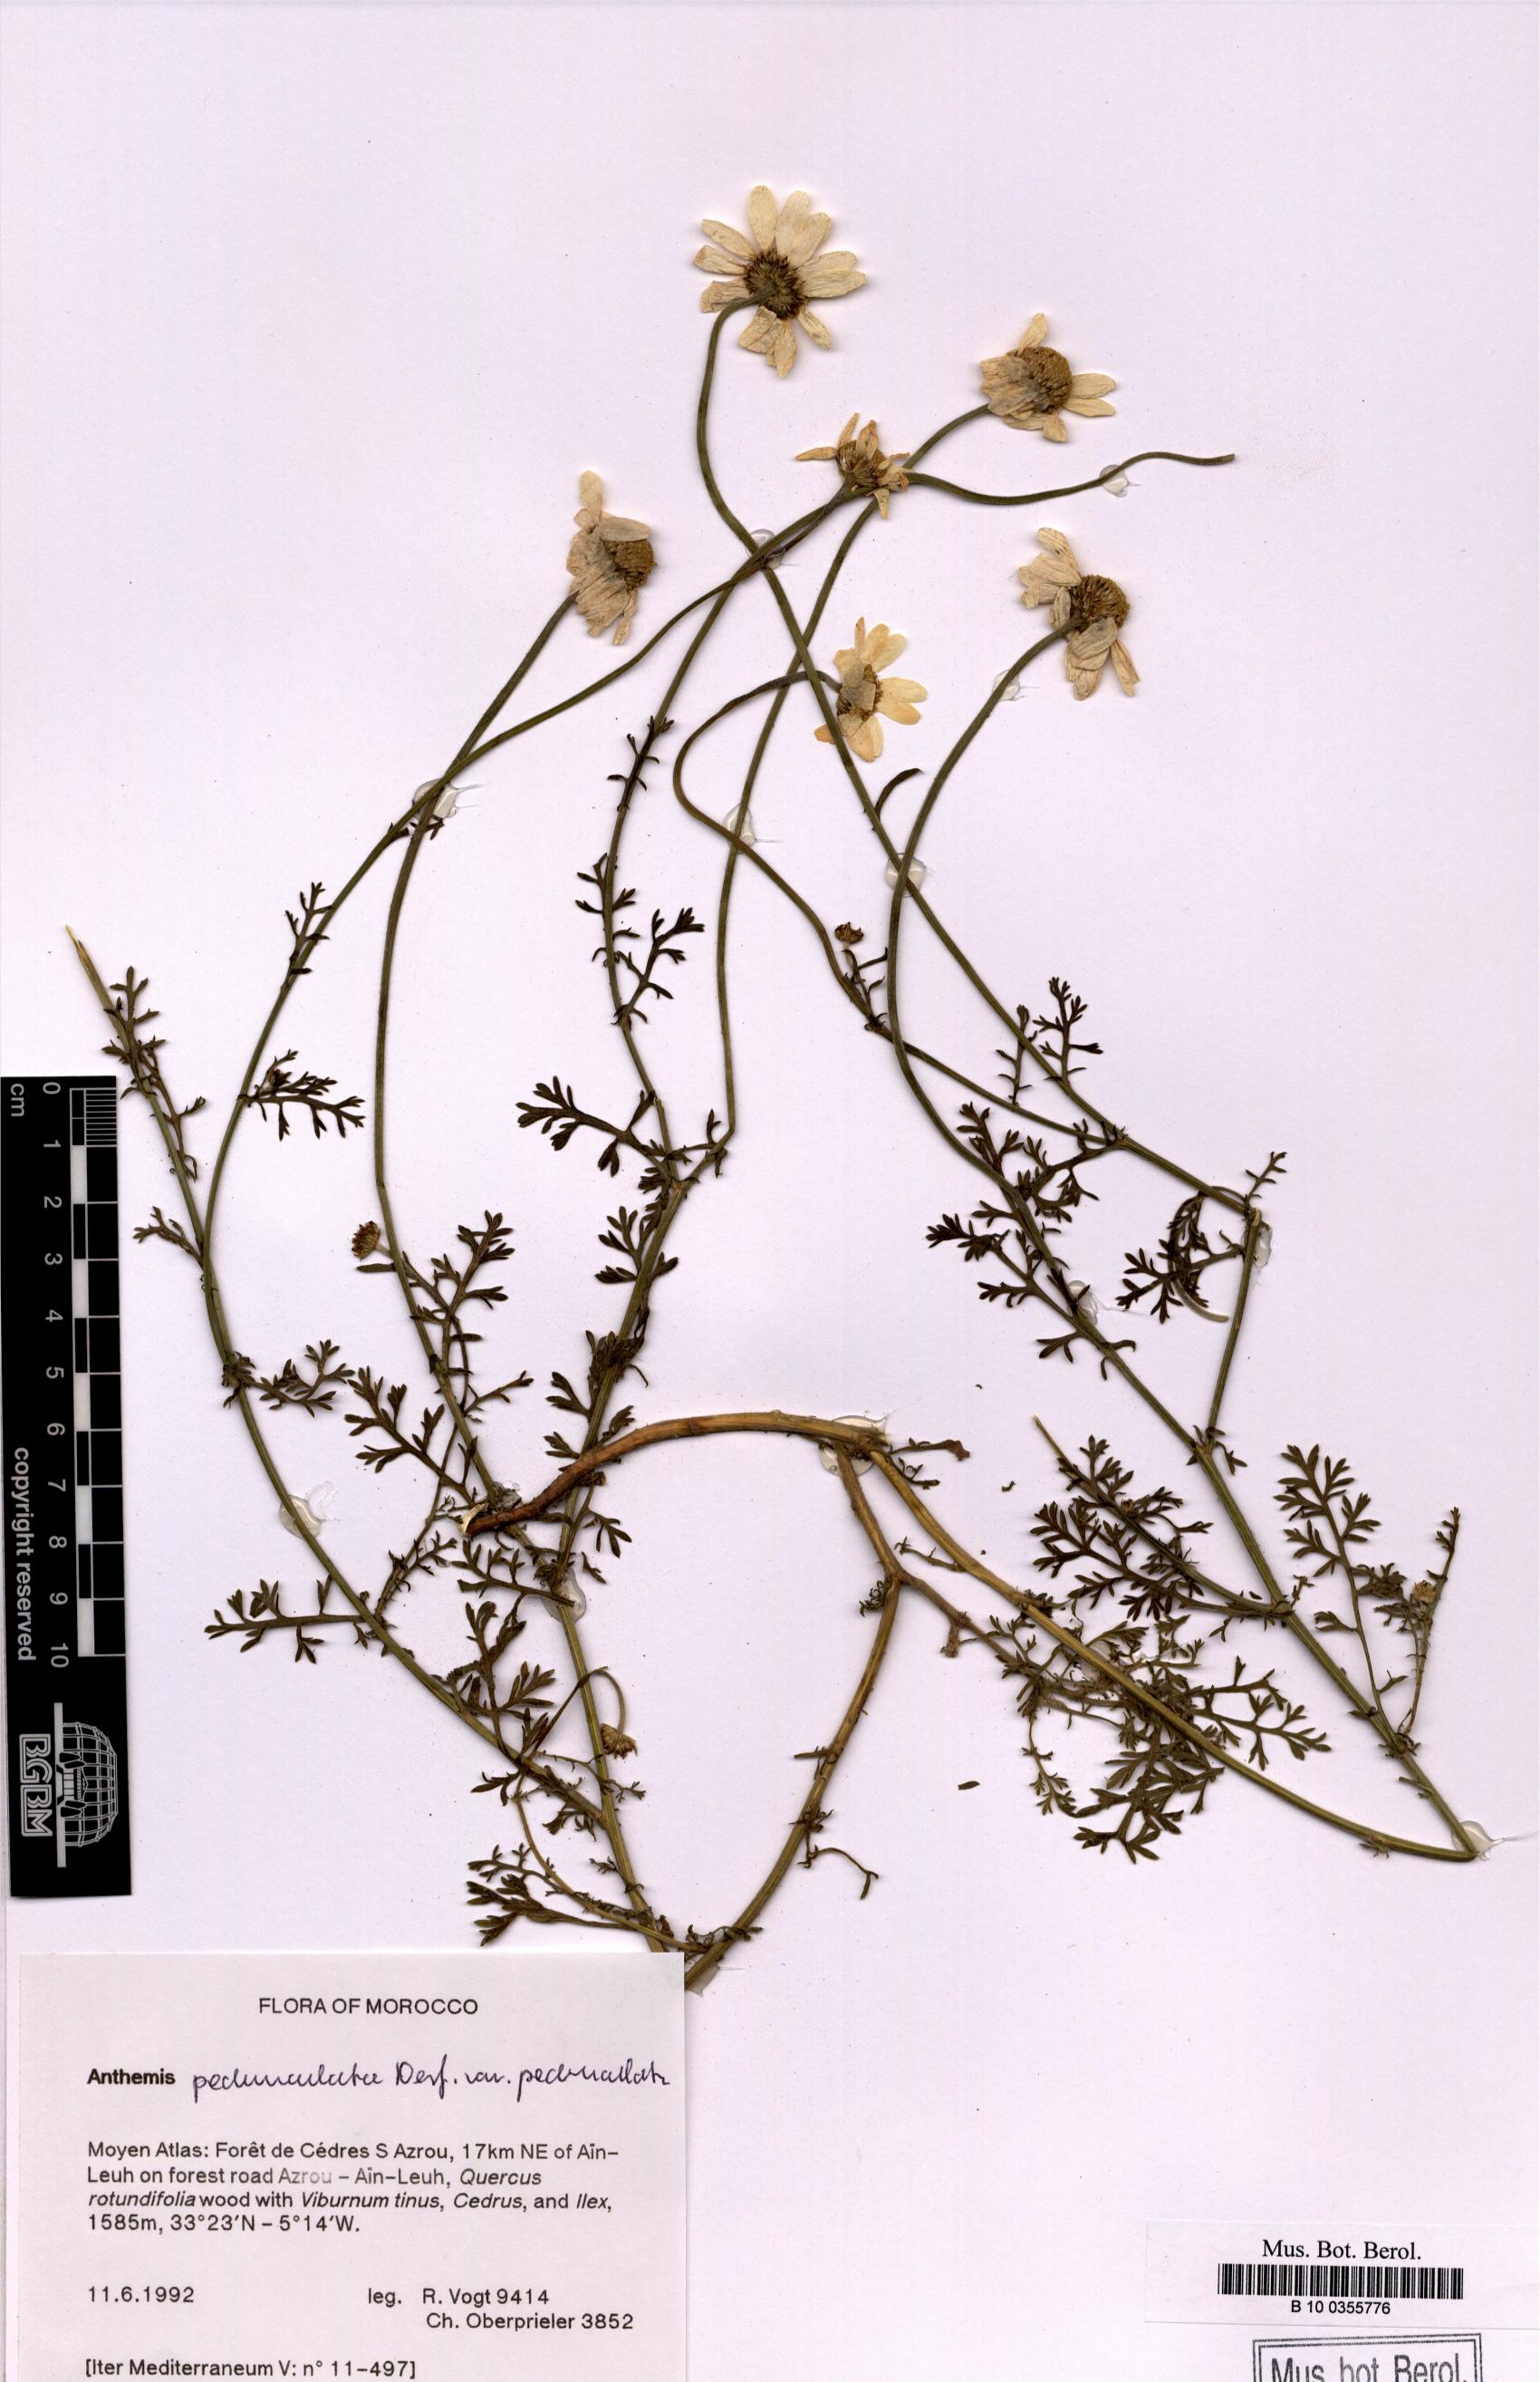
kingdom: Plantae
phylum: Tracheophyta
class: Magnoliopsida
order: Asterales
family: Asteraceae
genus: Anthemis
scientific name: Anthemis pedunculata
